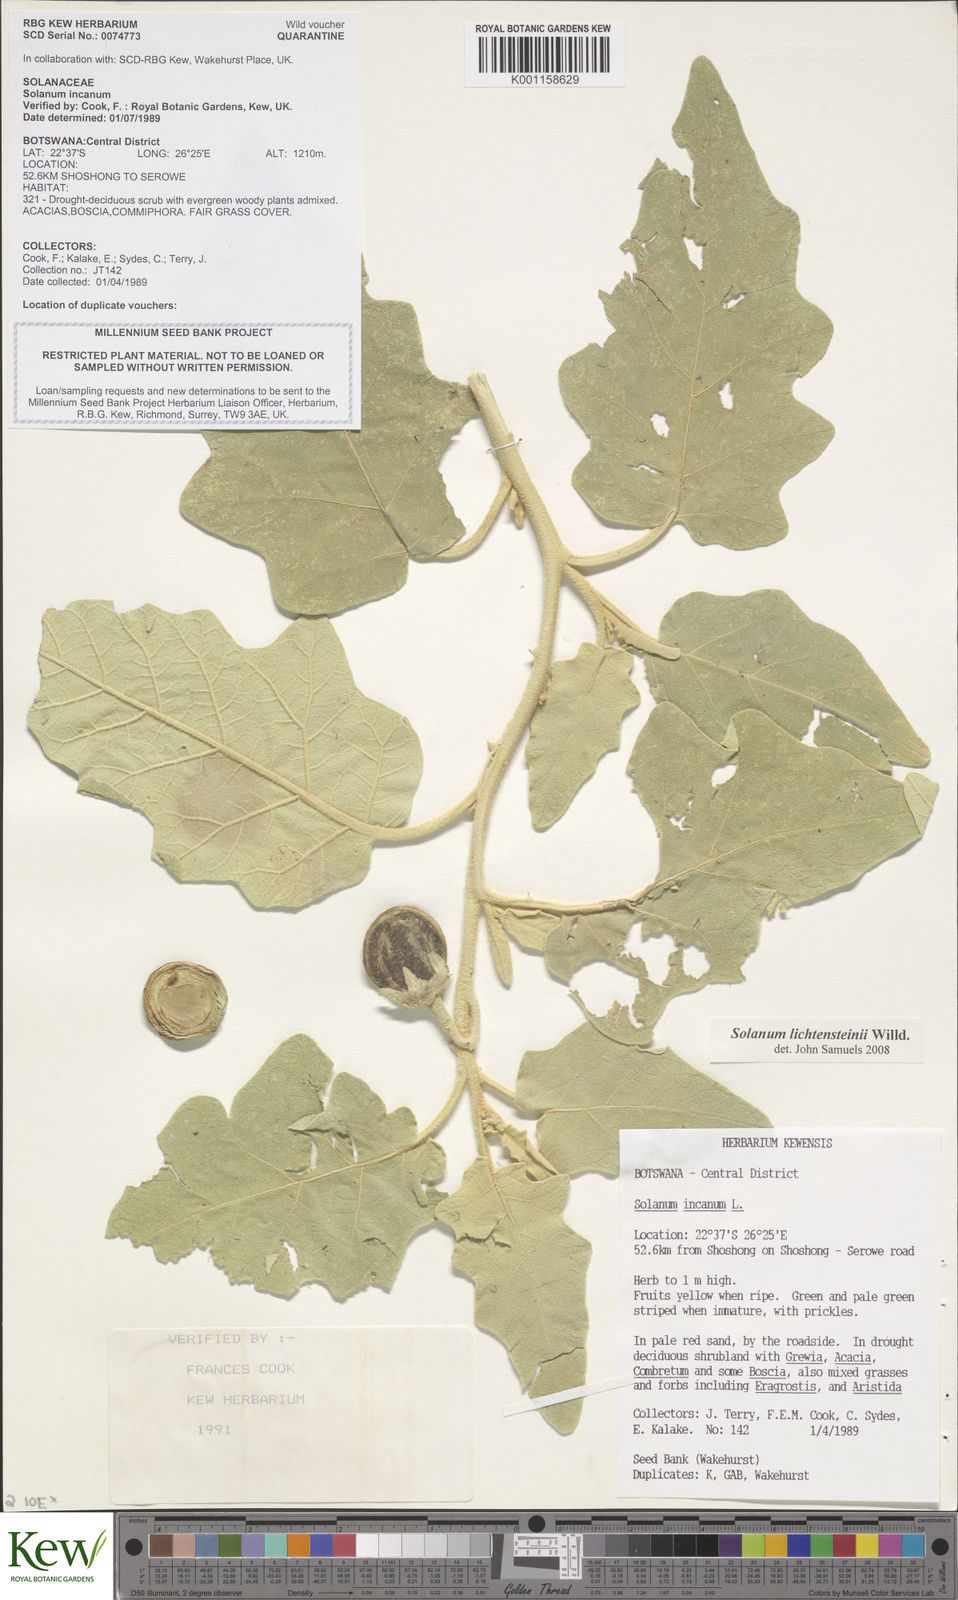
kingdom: Plantae
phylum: Tracheophyta
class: Magnoliopsida
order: Solanales
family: Solanaceae
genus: Solanum
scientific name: Solanum lichtensteinii
